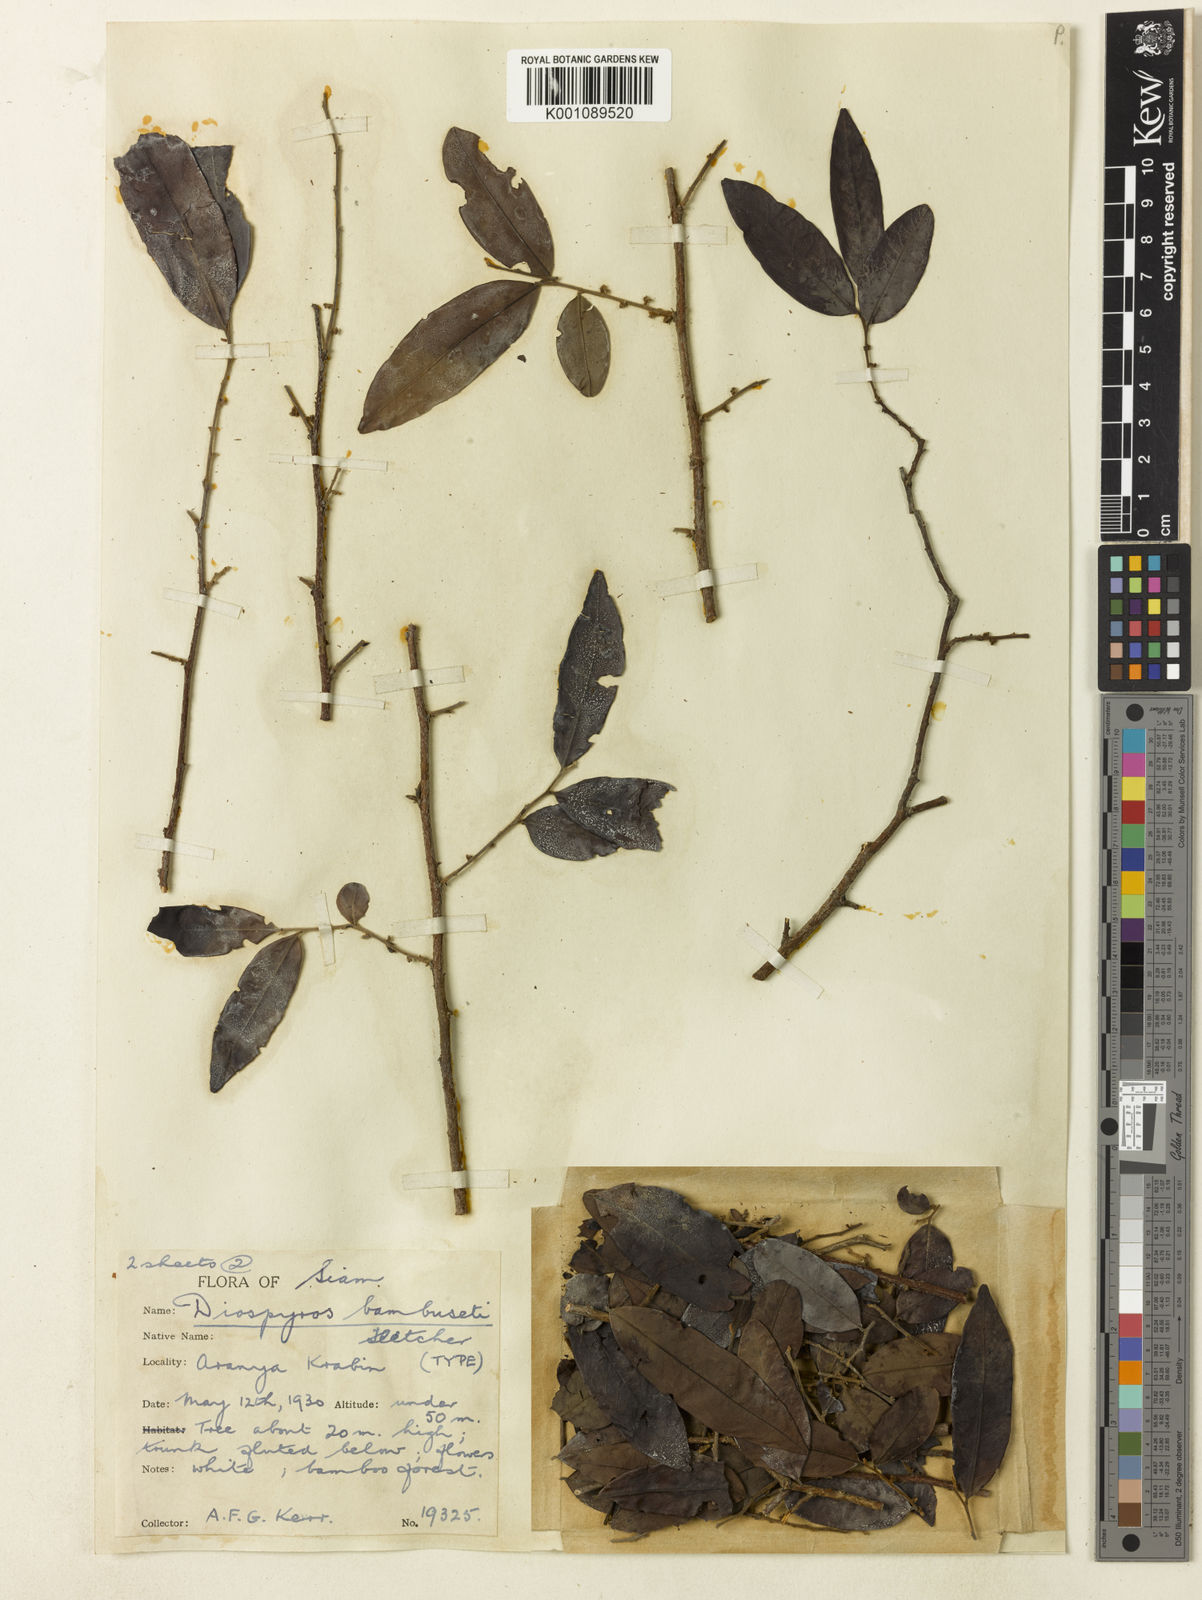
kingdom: Plantae
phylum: Tracheophyta
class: Magnoliopsida
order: Ericales
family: Ebenaceae
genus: Diospyros
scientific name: Diospyros bambuseti
